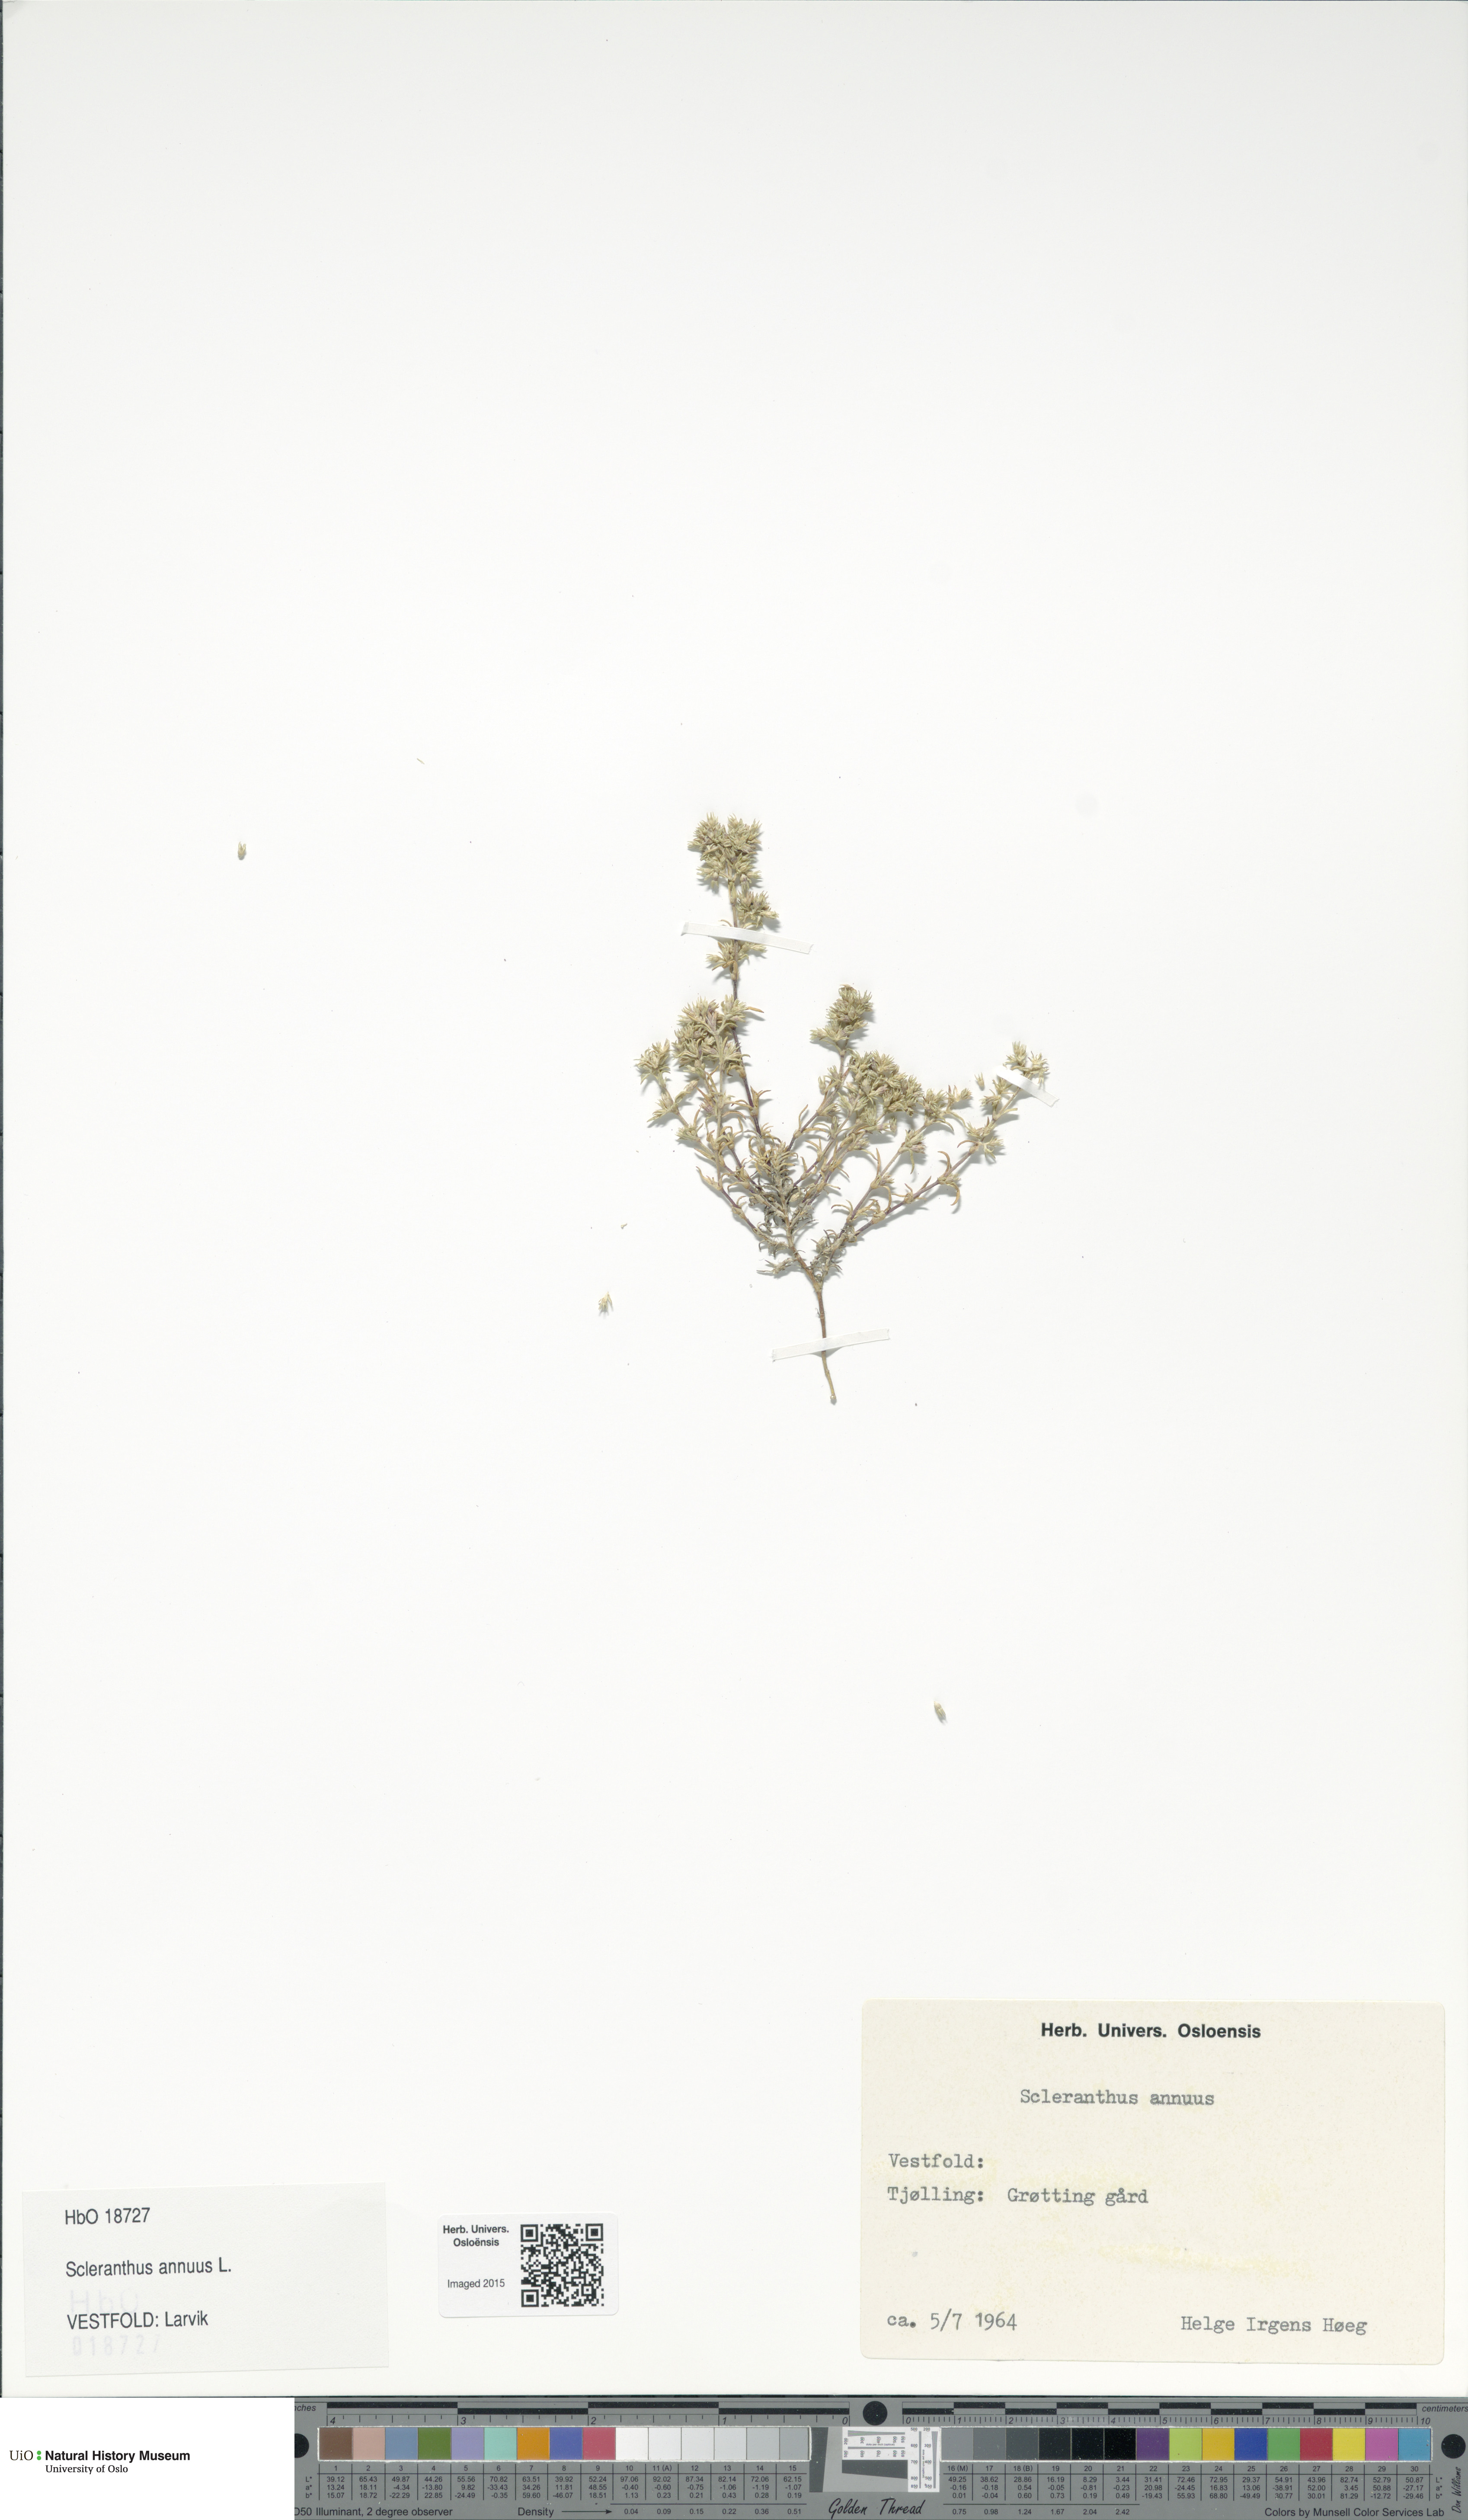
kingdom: Plantae
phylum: Tracheophyta
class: Magnoliopsida
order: Caryophyllales
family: Caryophyllaceae
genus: Scleranthus
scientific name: Scleranthus annuus
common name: Annual knawel
